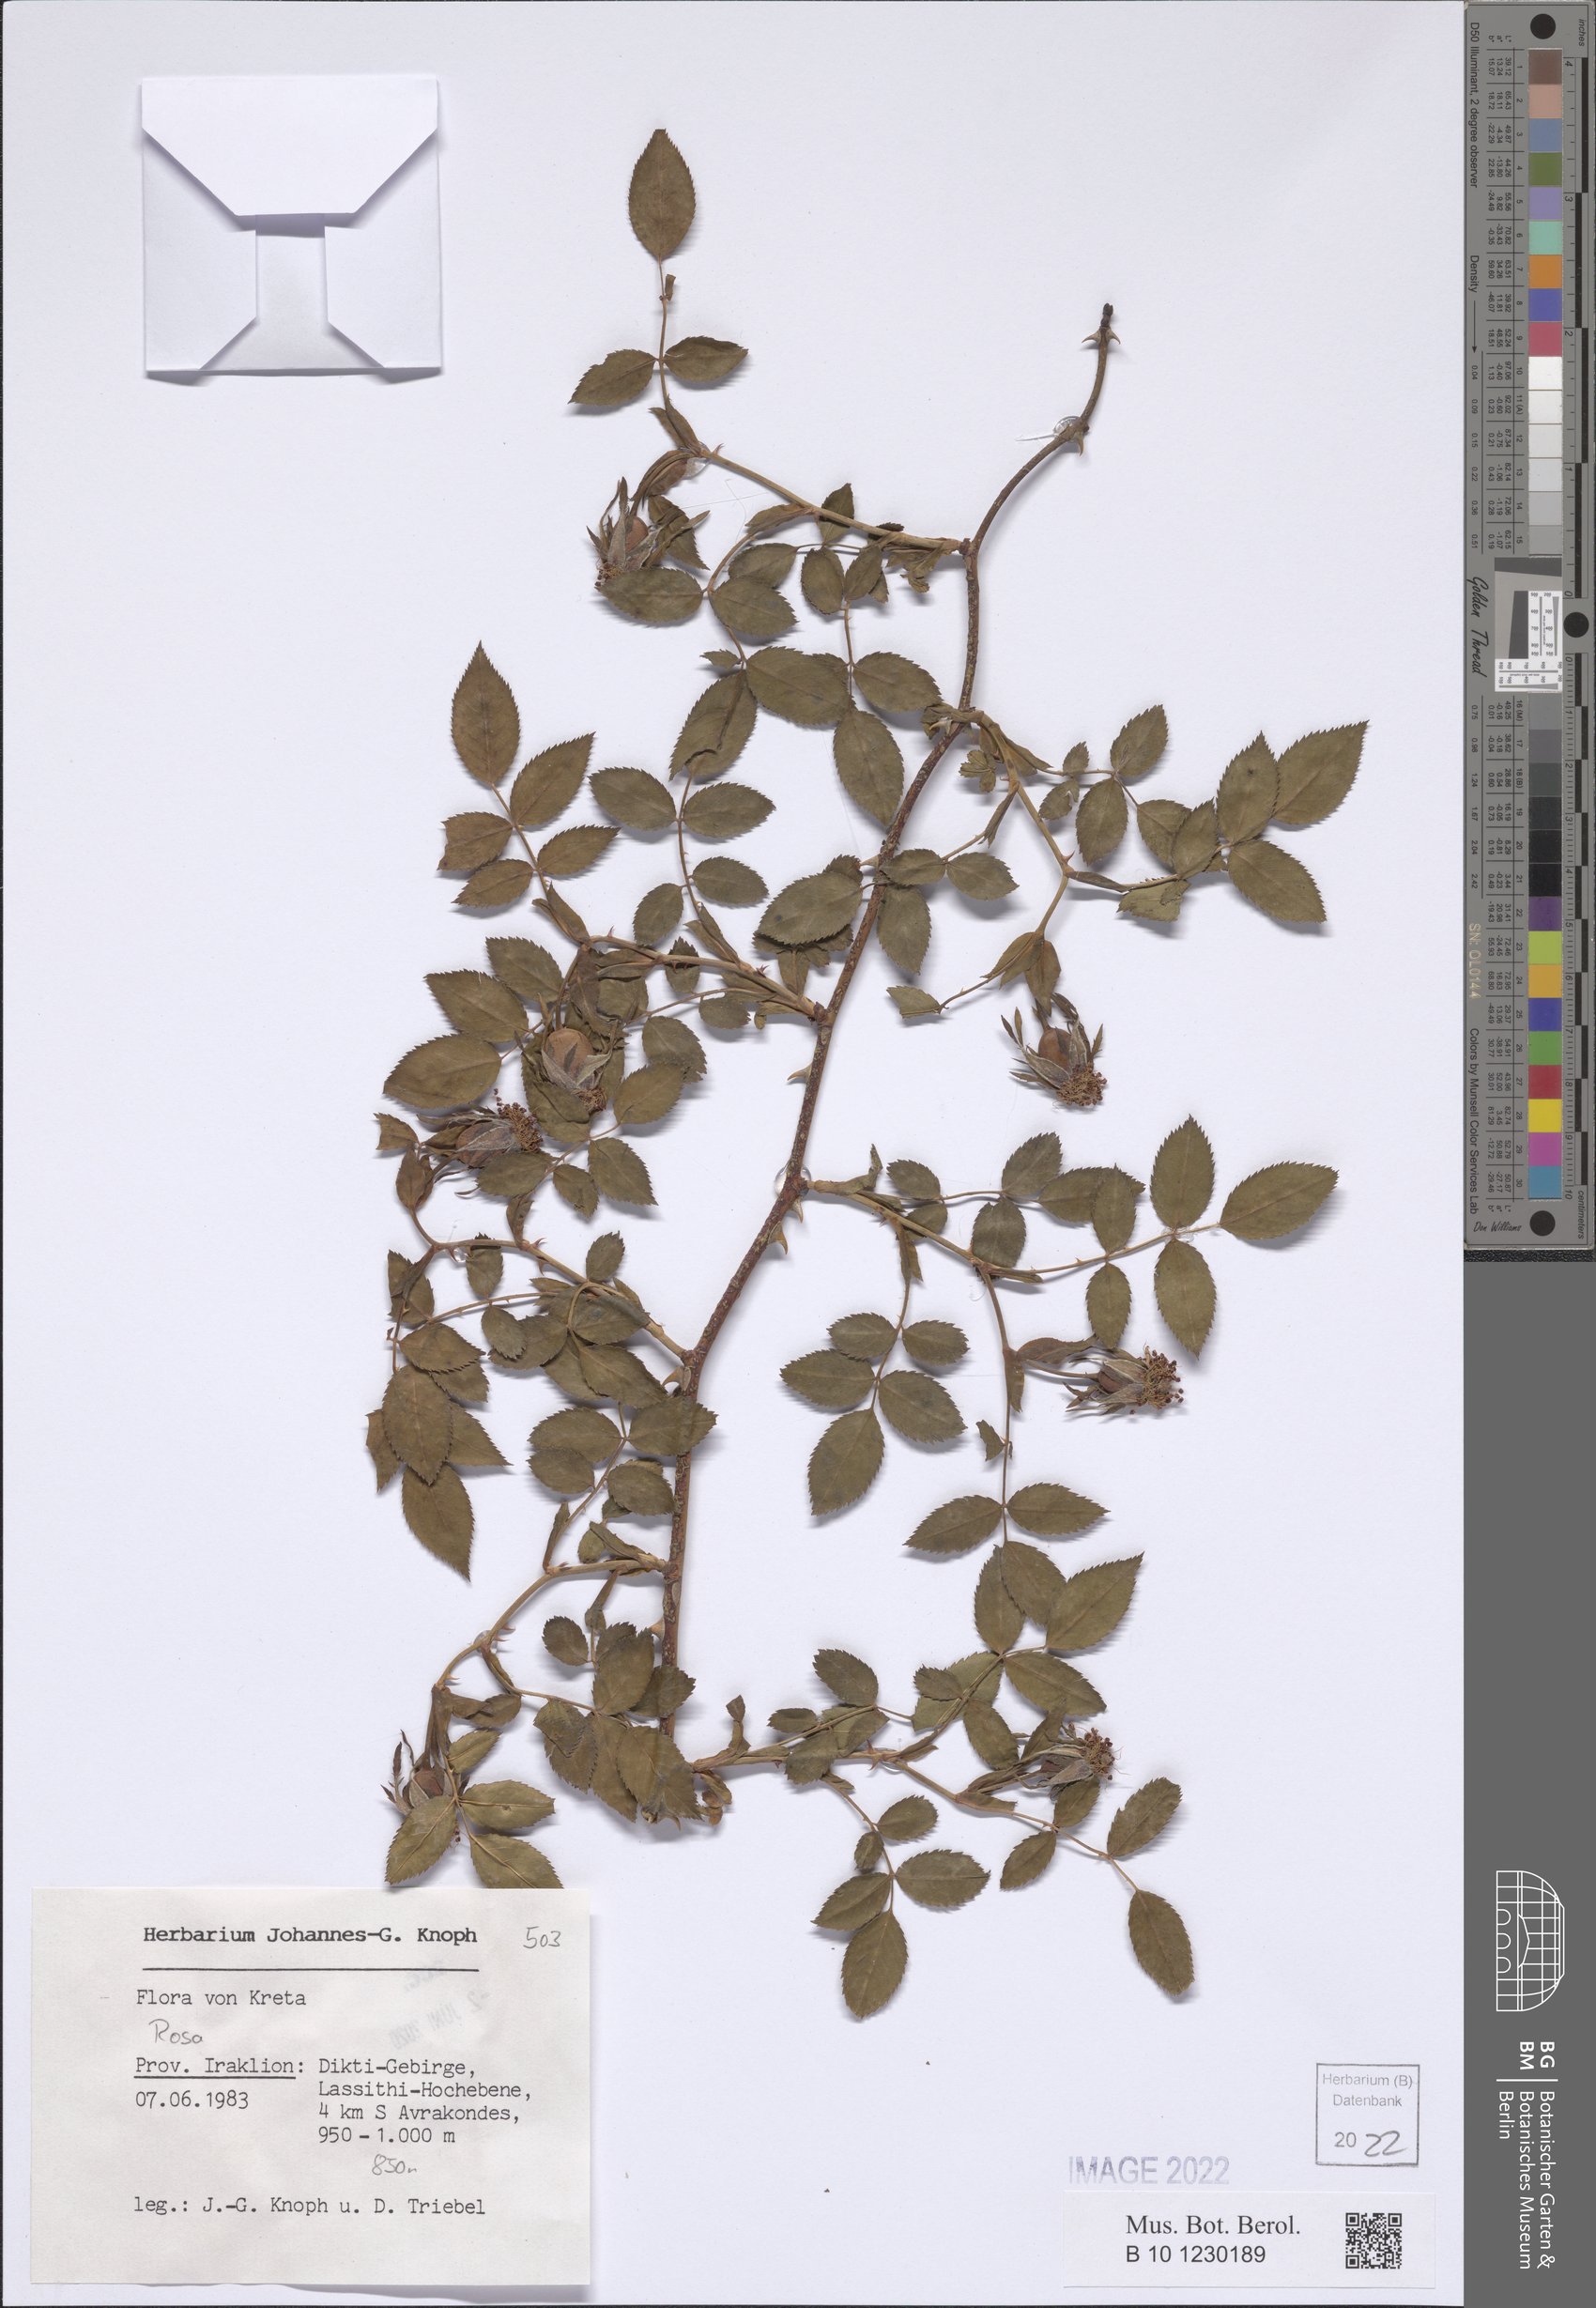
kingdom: Plantae
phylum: Tracheophyta
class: Magnoliopsida
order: Rosales
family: Rosaceae
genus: Rosa
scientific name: Rosa
